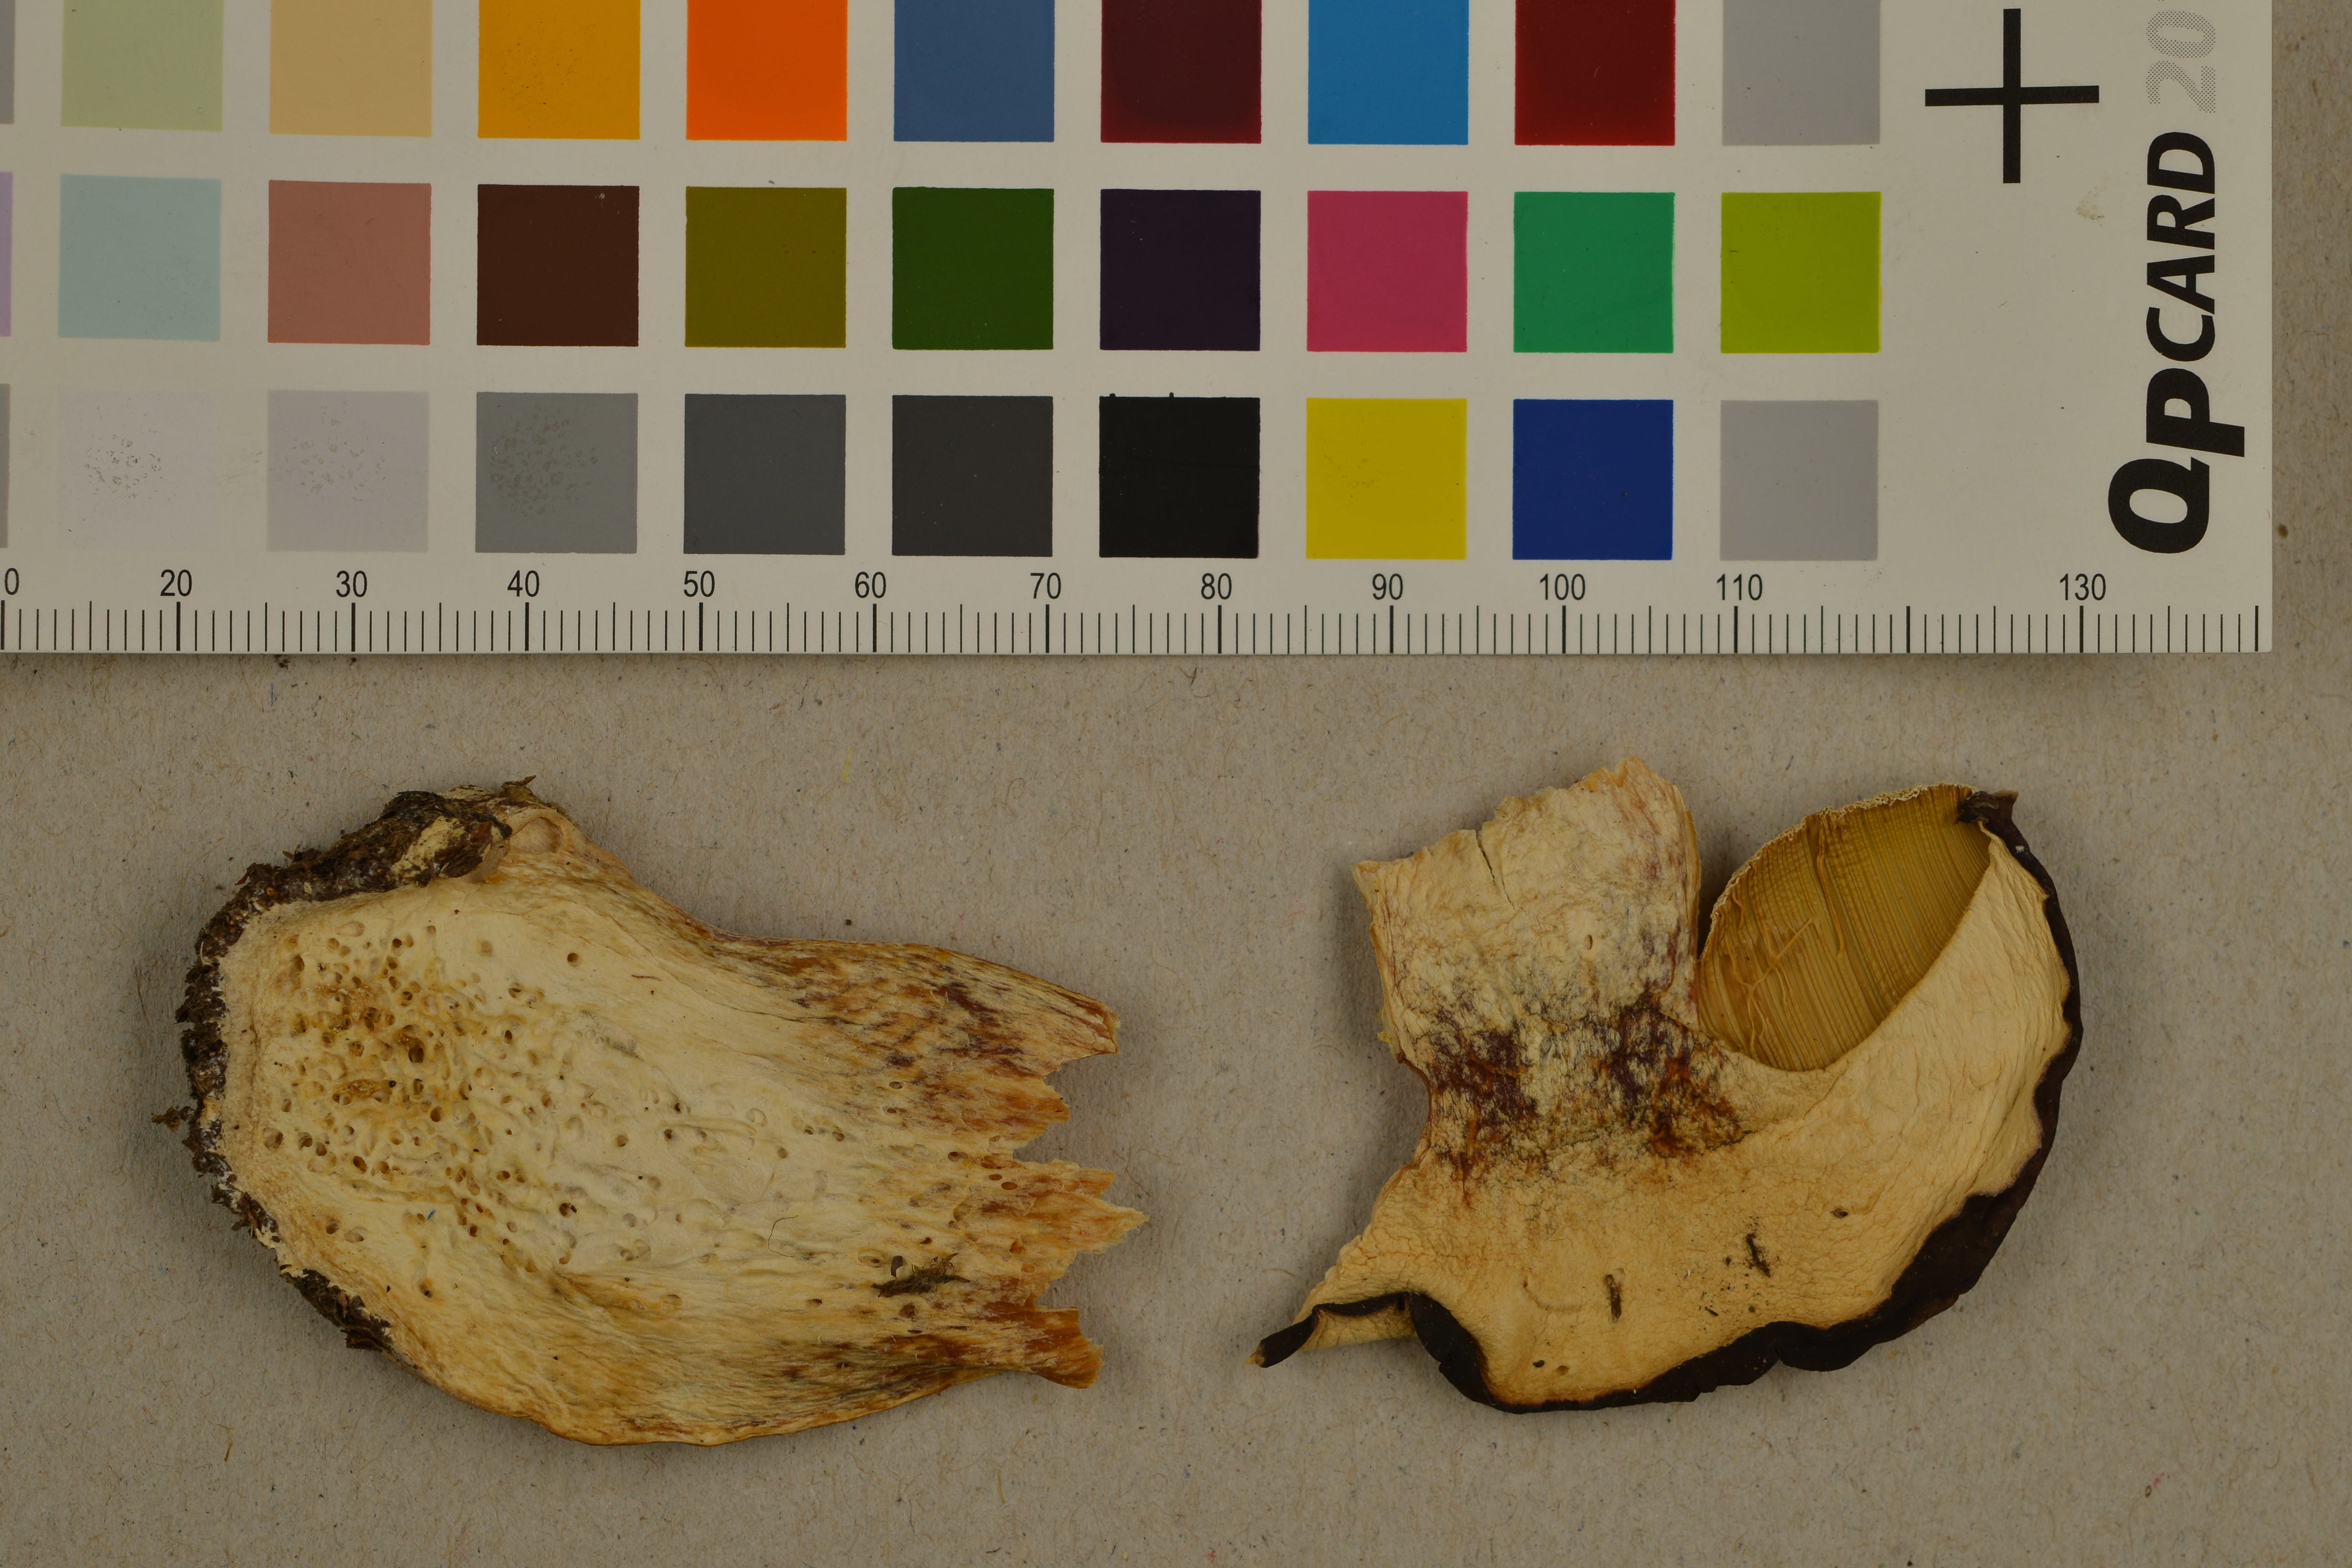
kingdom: Fungi
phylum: Basidiomycota
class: Agaricomycetes
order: Boletales
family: Boletaceae
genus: Boletus
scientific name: Boletus pinophilus
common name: Pine bolete
